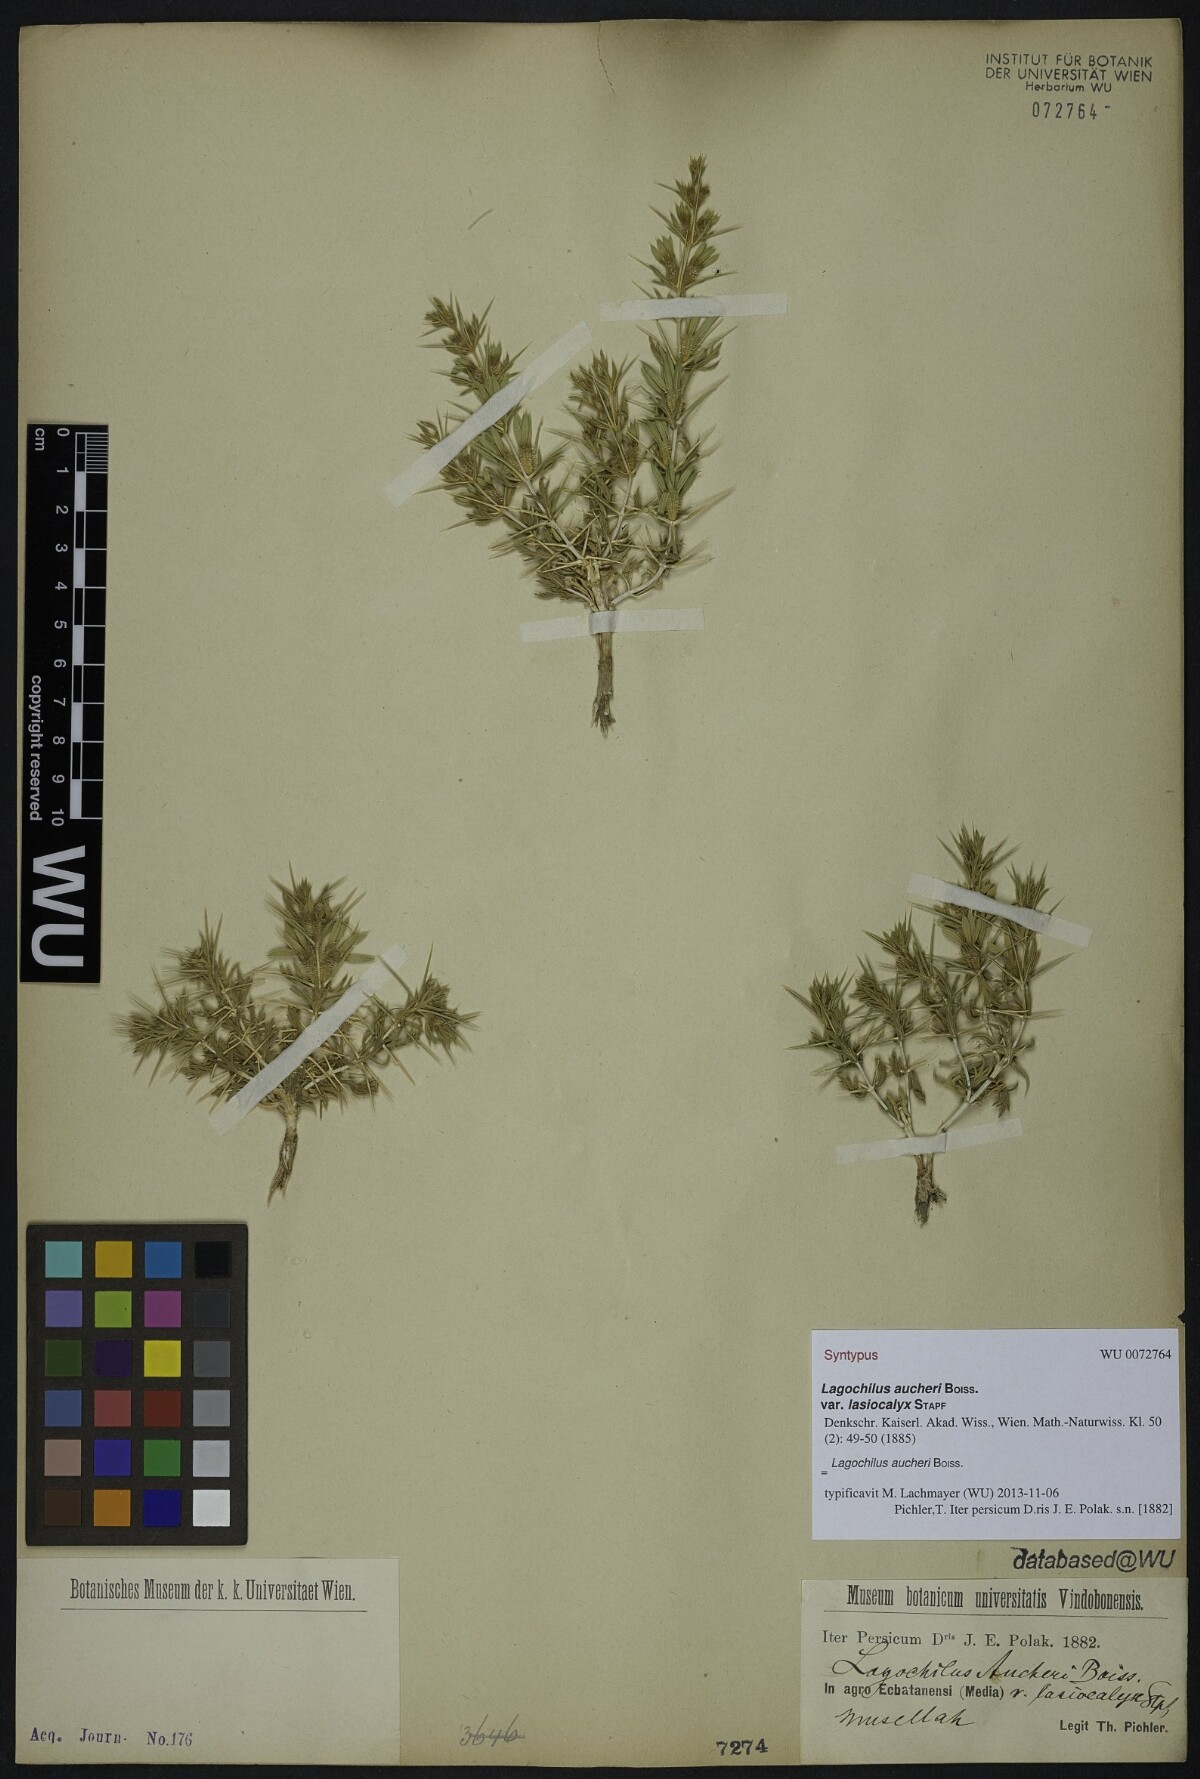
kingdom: Plantae
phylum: Tracheophyta
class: Magnoliopsida
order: Lamiales
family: Lamiaceae
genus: Lagochilus
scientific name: Lagochilus aucheri
